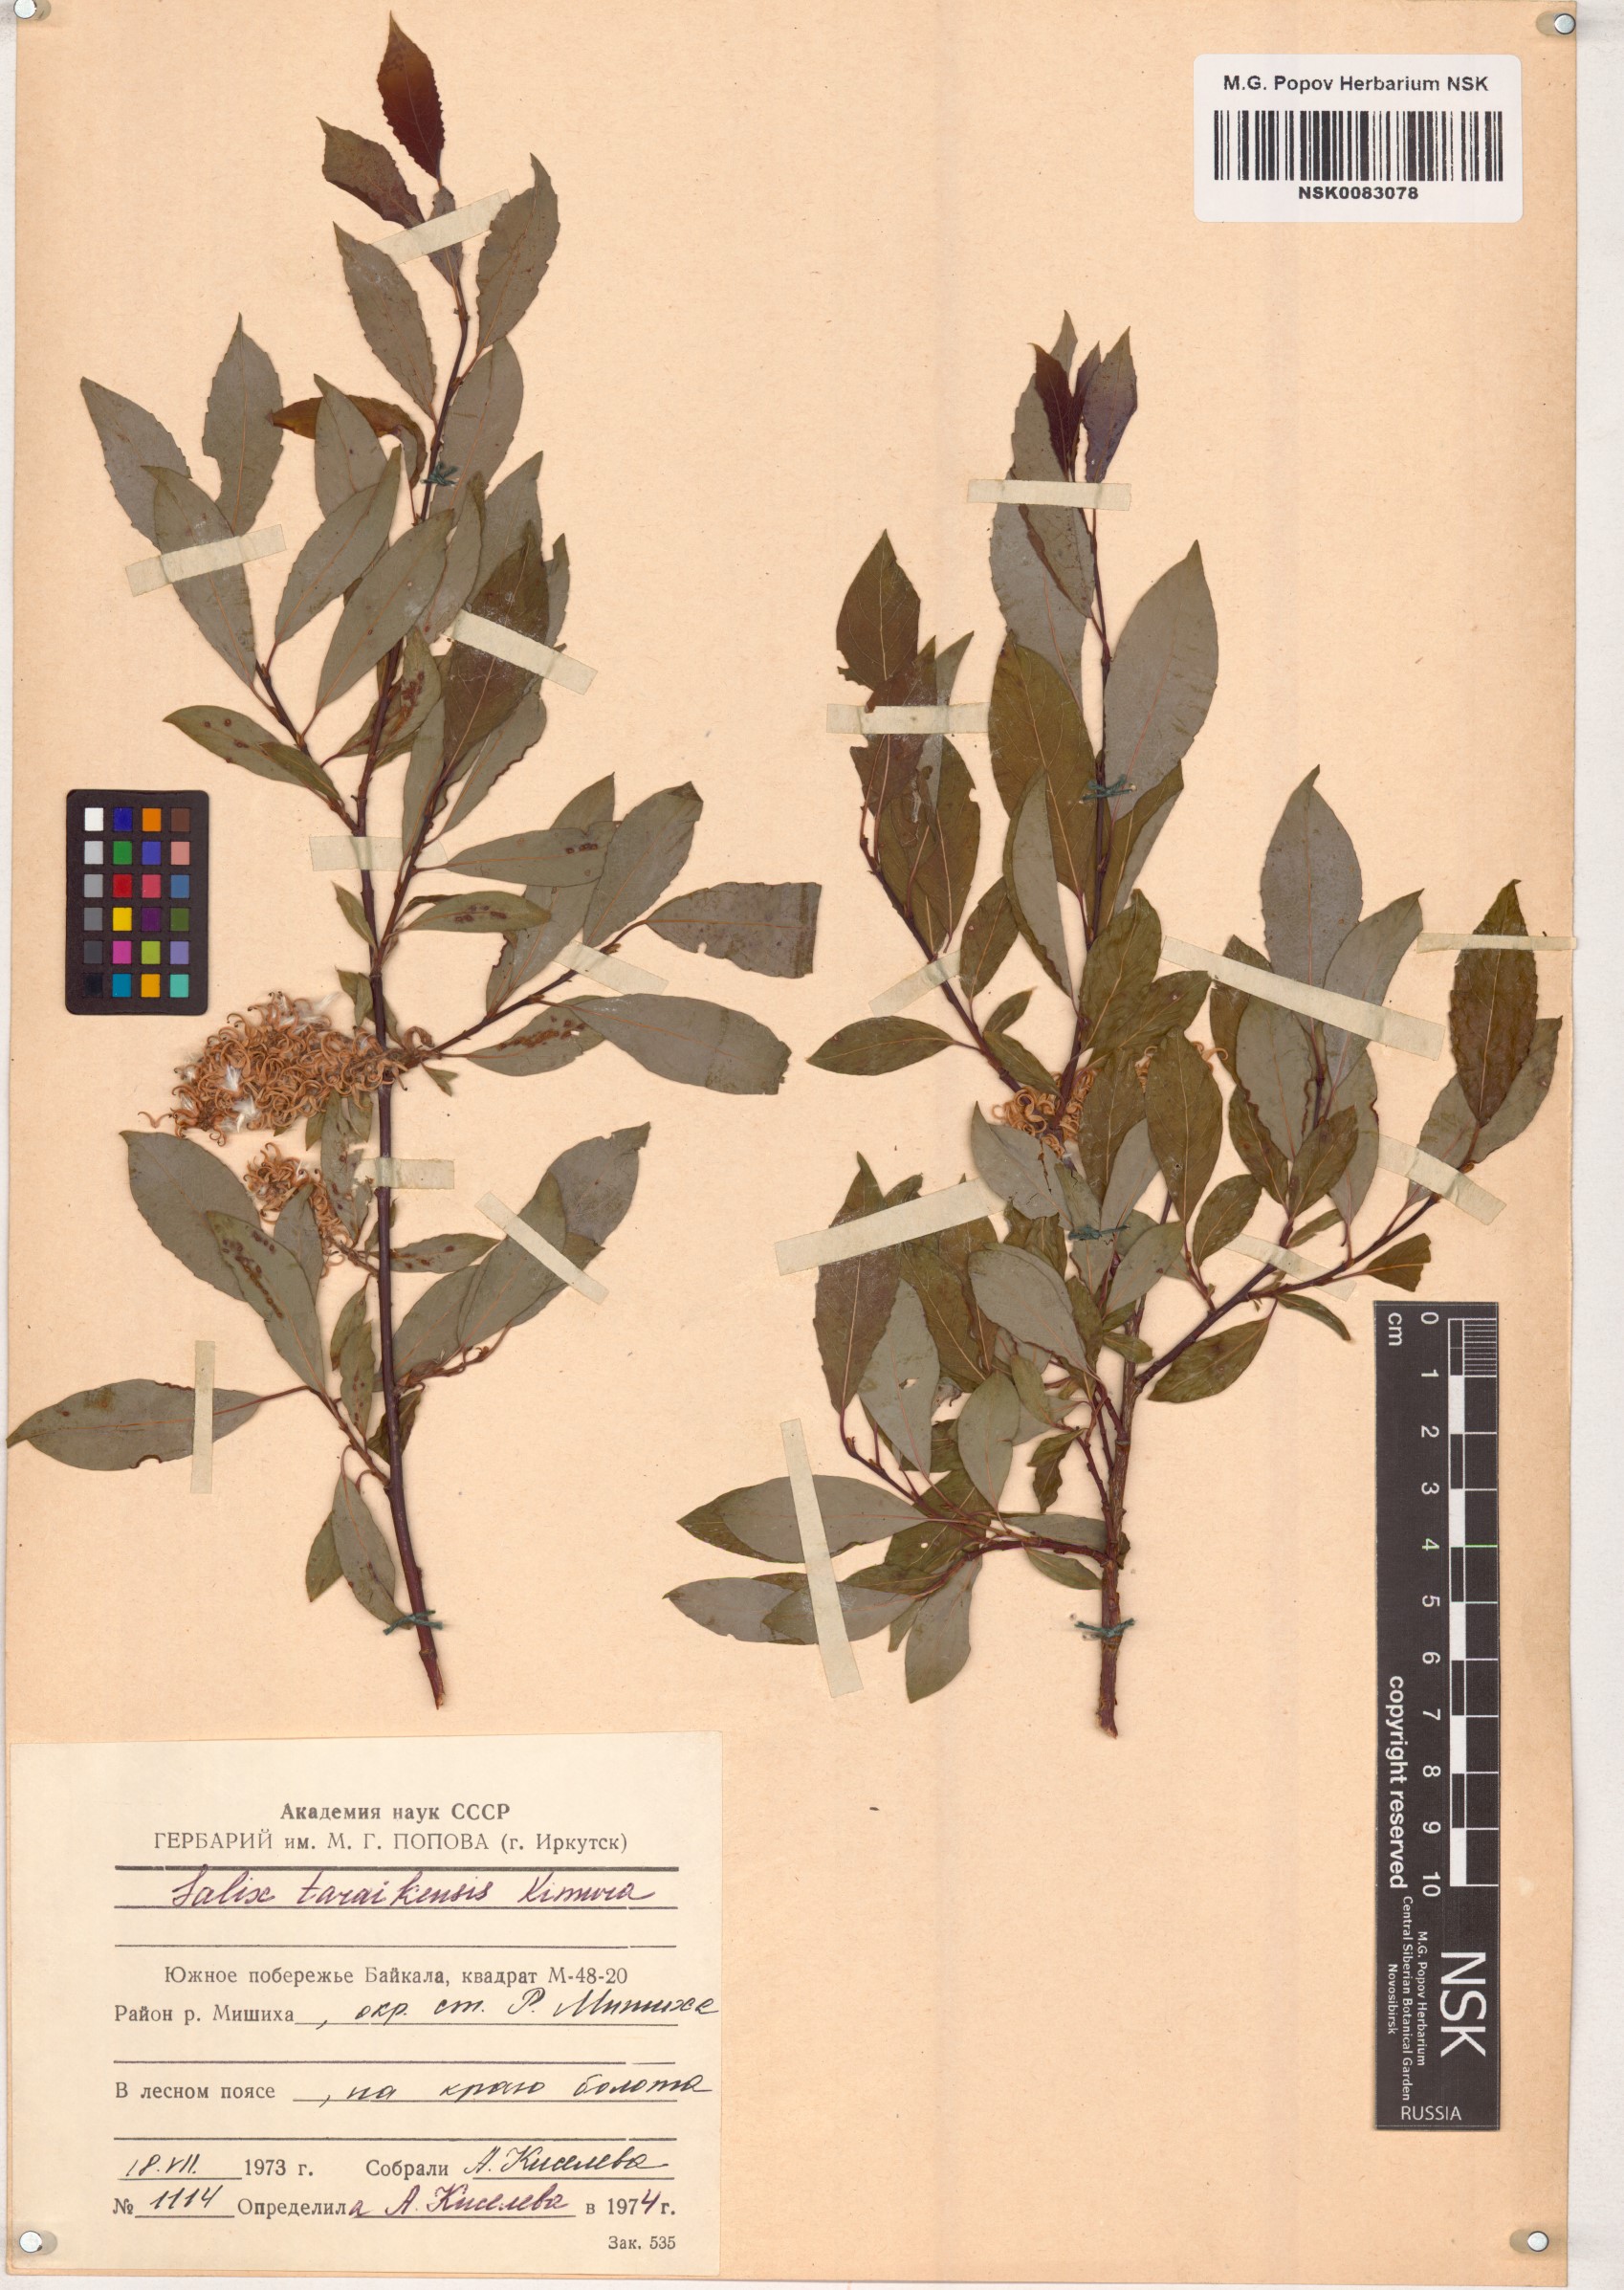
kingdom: Plantae
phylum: Tracheophyta
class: Magnoliopsida
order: Malpighiales
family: Salicaceae
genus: Salix
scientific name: Salix taraikensis
